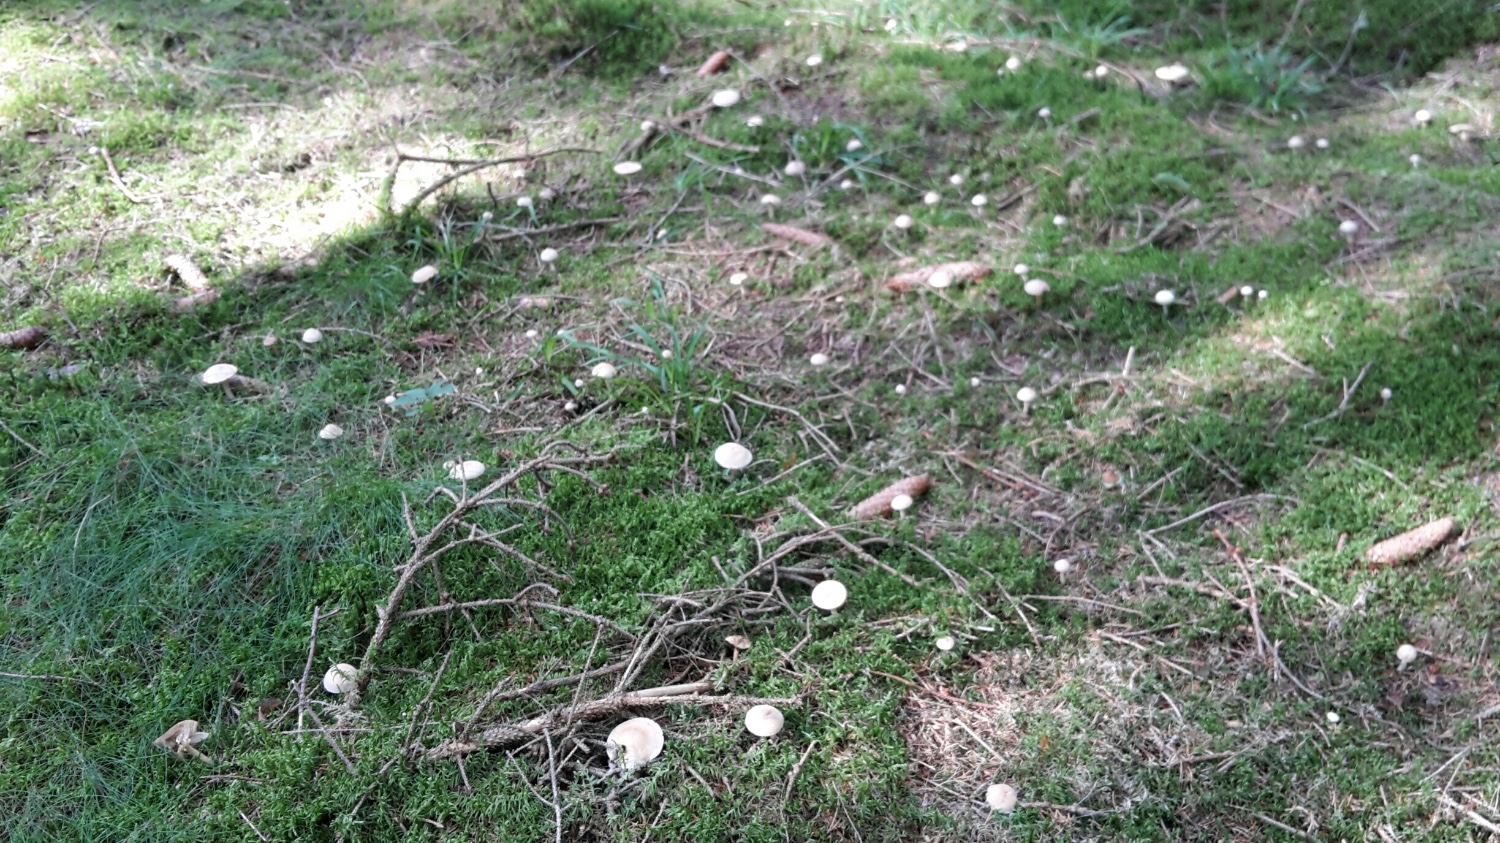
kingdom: Fungi
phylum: Basidiomycota
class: Agaricomycetes
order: Agaricales
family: Tricholomataceae
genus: Tricholoma
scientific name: Tricholoma inamoenum
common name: højstokket ridderhat
